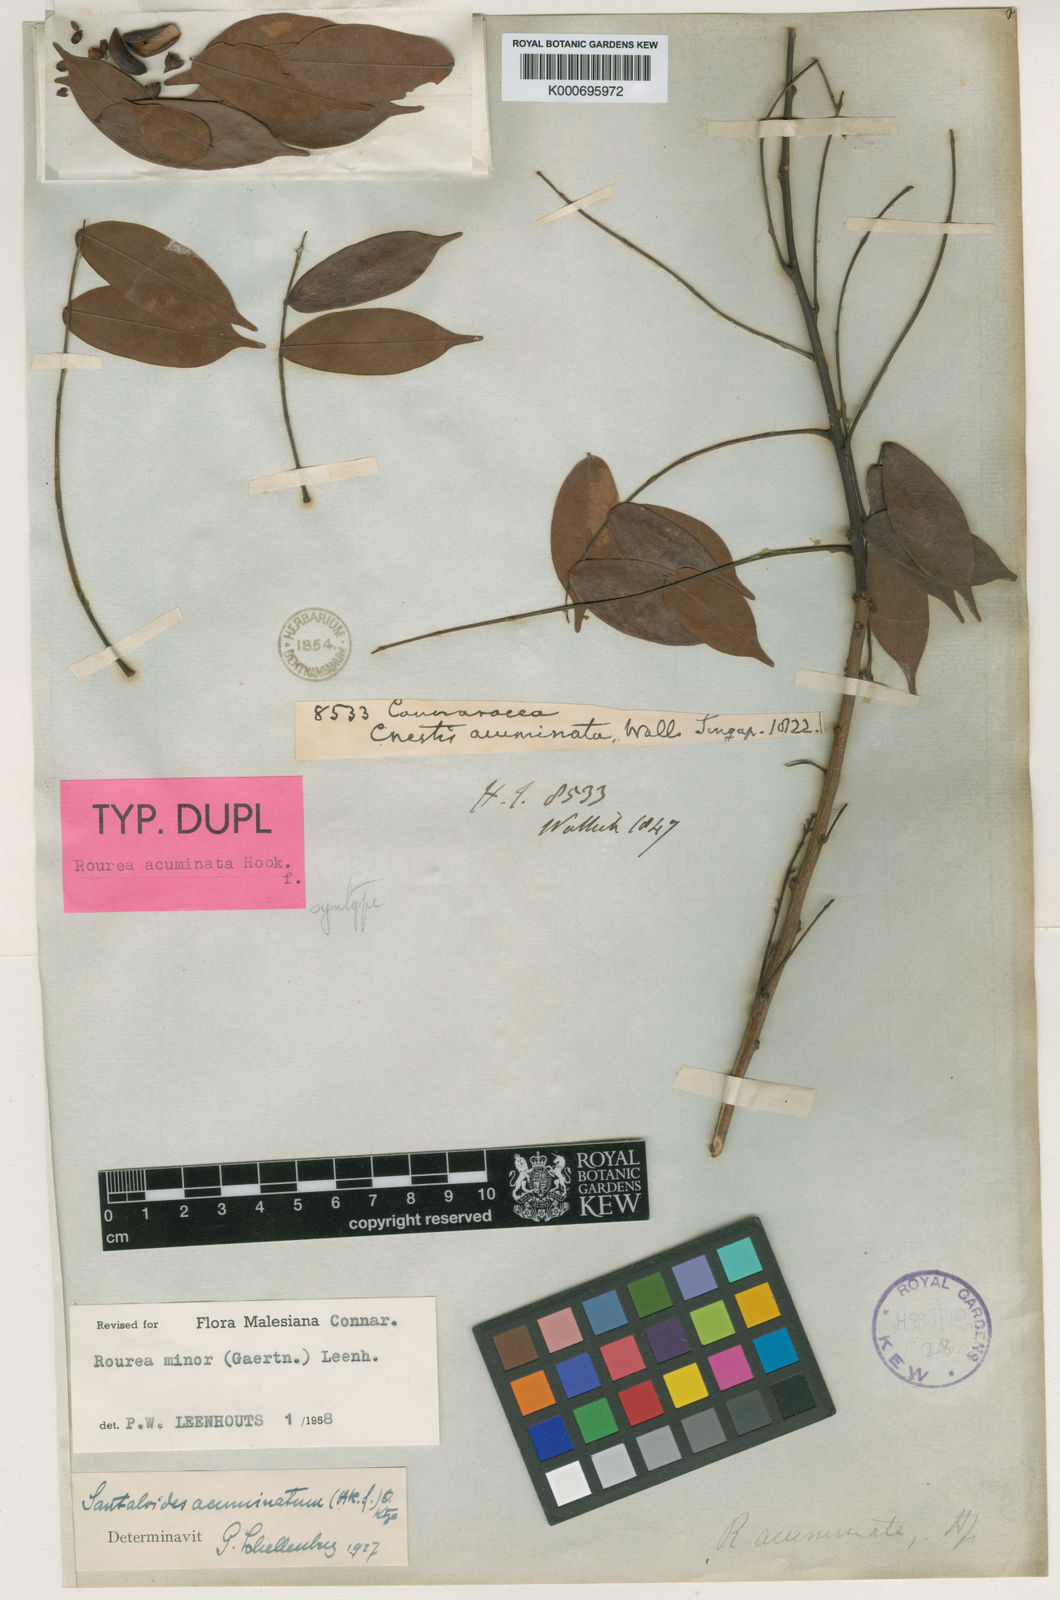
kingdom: Plantae
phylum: Tracheophyta
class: Magnoliopsida
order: Oxalidales
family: Connaraceae
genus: Rourea
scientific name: Rourea
